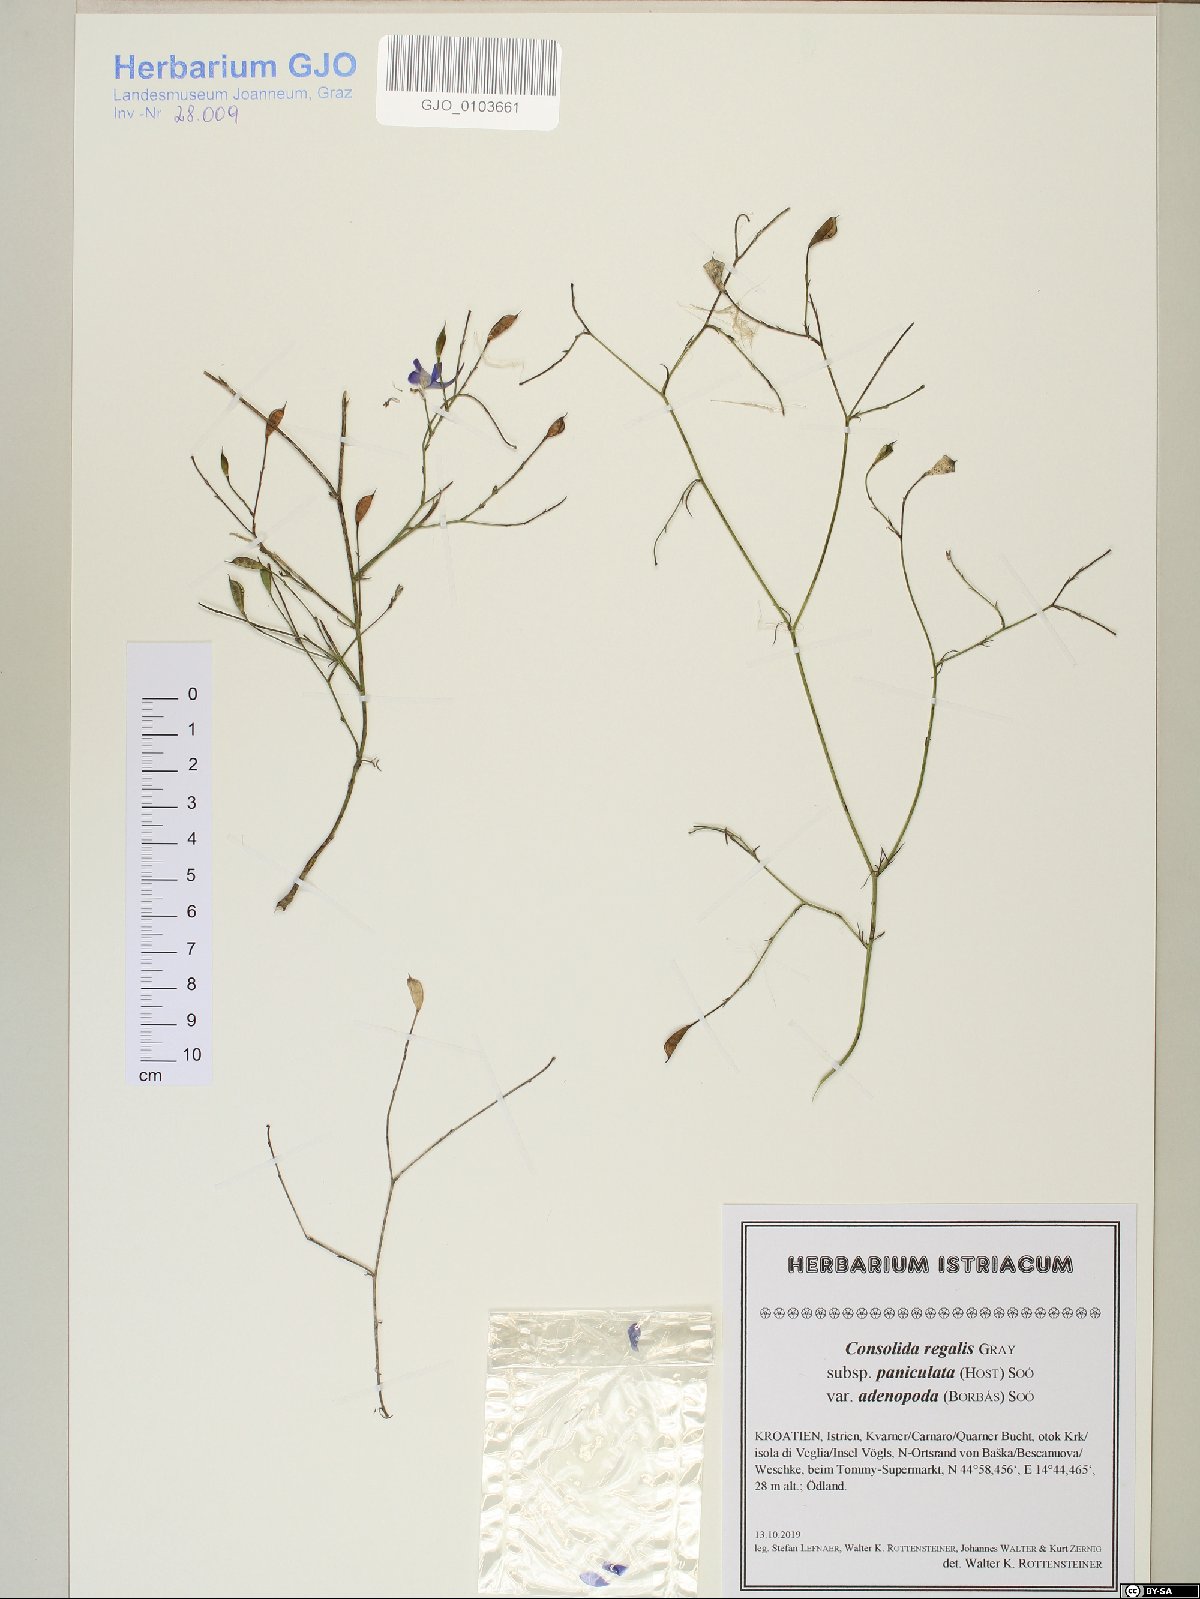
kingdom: Plantae
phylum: Tracheophyta
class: Magnoliopsida
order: Ranunculales
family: Ranunculaceae
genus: Delphinium
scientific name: Delphinium consolida
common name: Branching larkspur
